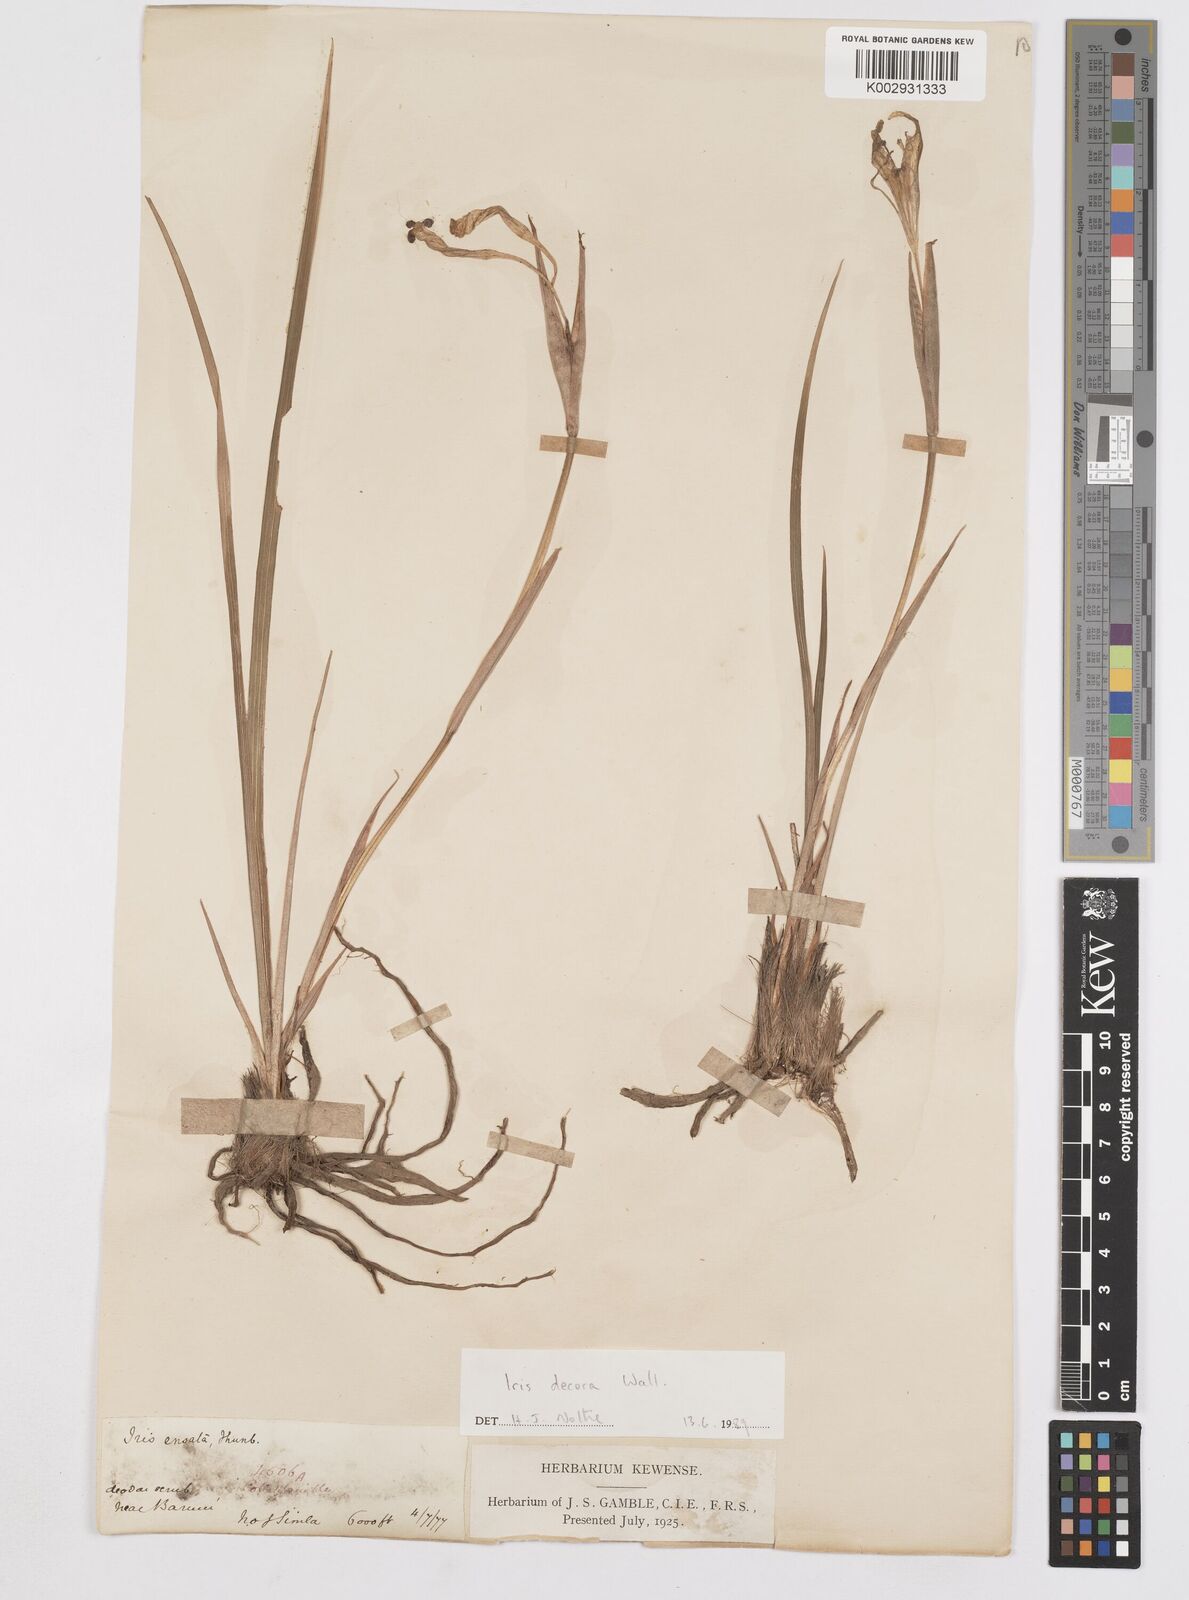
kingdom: Plantae
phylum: Tracheophyta
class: Liliopsida
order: Asparagales
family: Iridaceae
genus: Iris
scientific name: Iris decora
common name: Nepal iris
